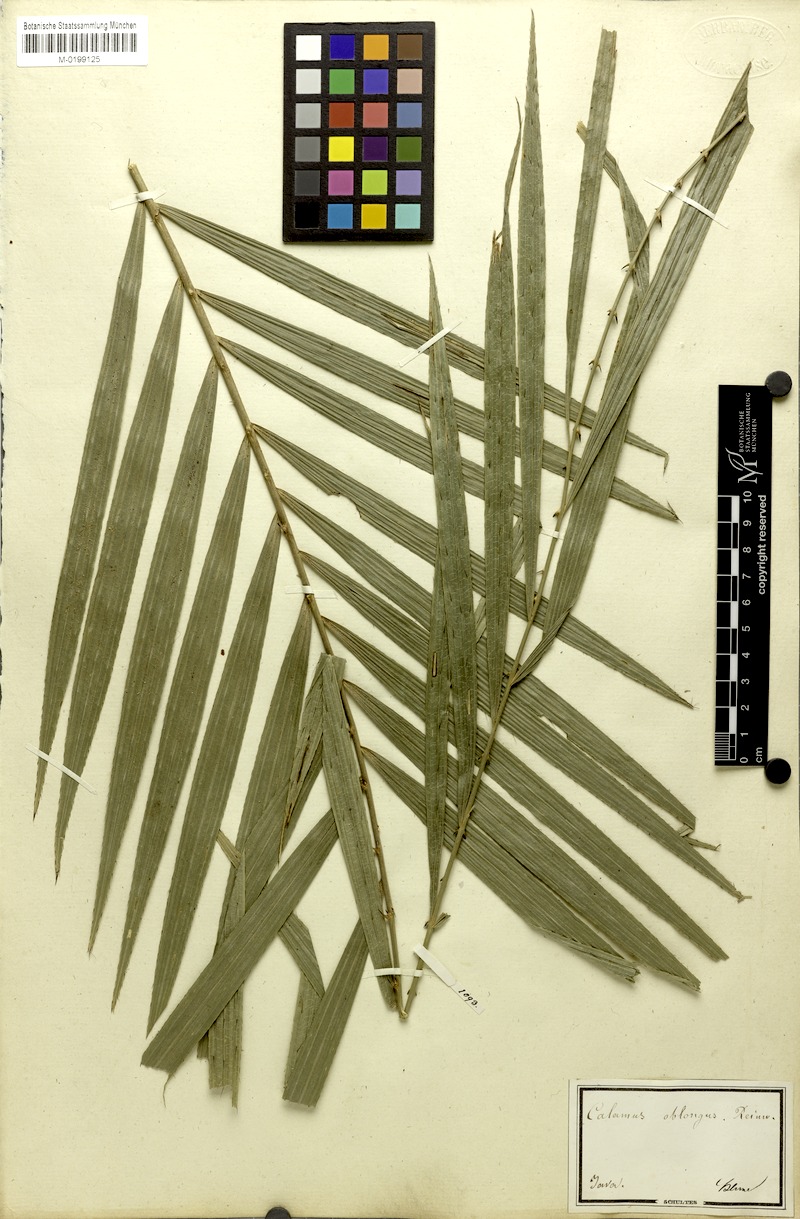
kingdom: Plantae
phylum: Tracheophyta
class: Liliopsida
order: Arecales
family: Arecaceae
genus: Calamus
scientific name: Calamus oblongus
